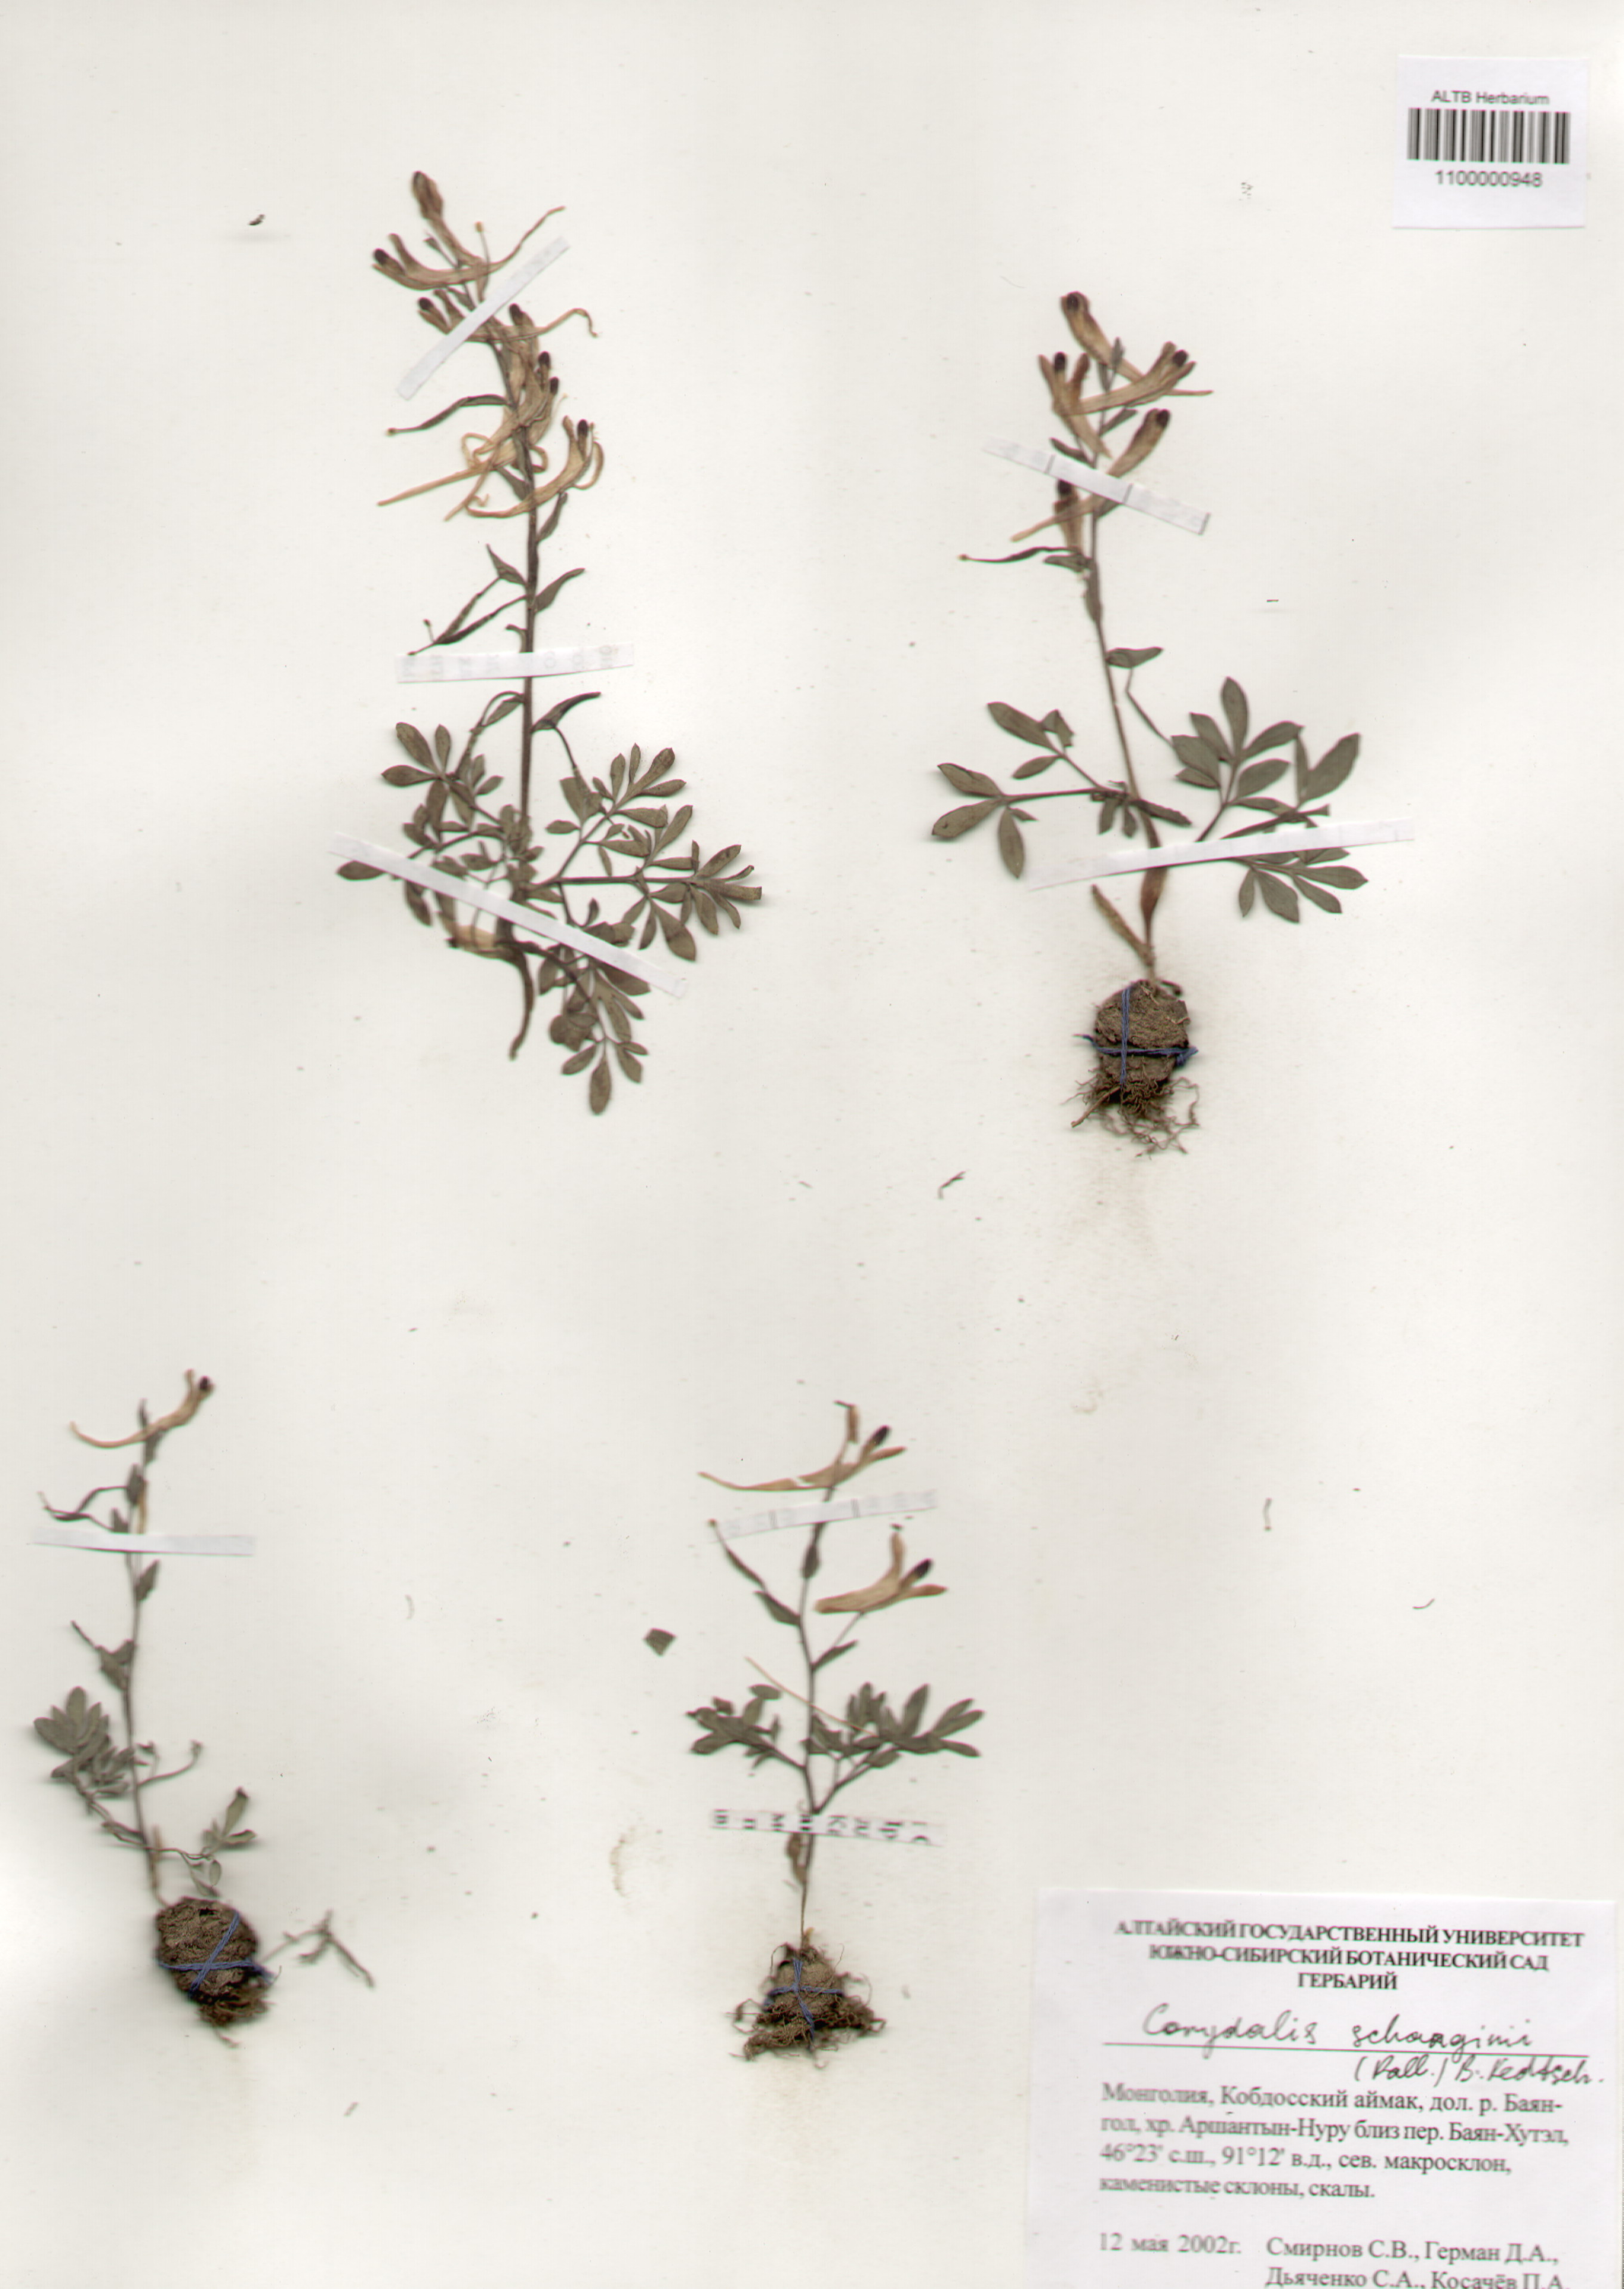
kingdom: Plantae
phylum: Tracheophyta
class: Magnoliopsida
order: Ranunculales
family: Papaveraceae
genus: Corydalis
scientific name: Corydalis schanginii
